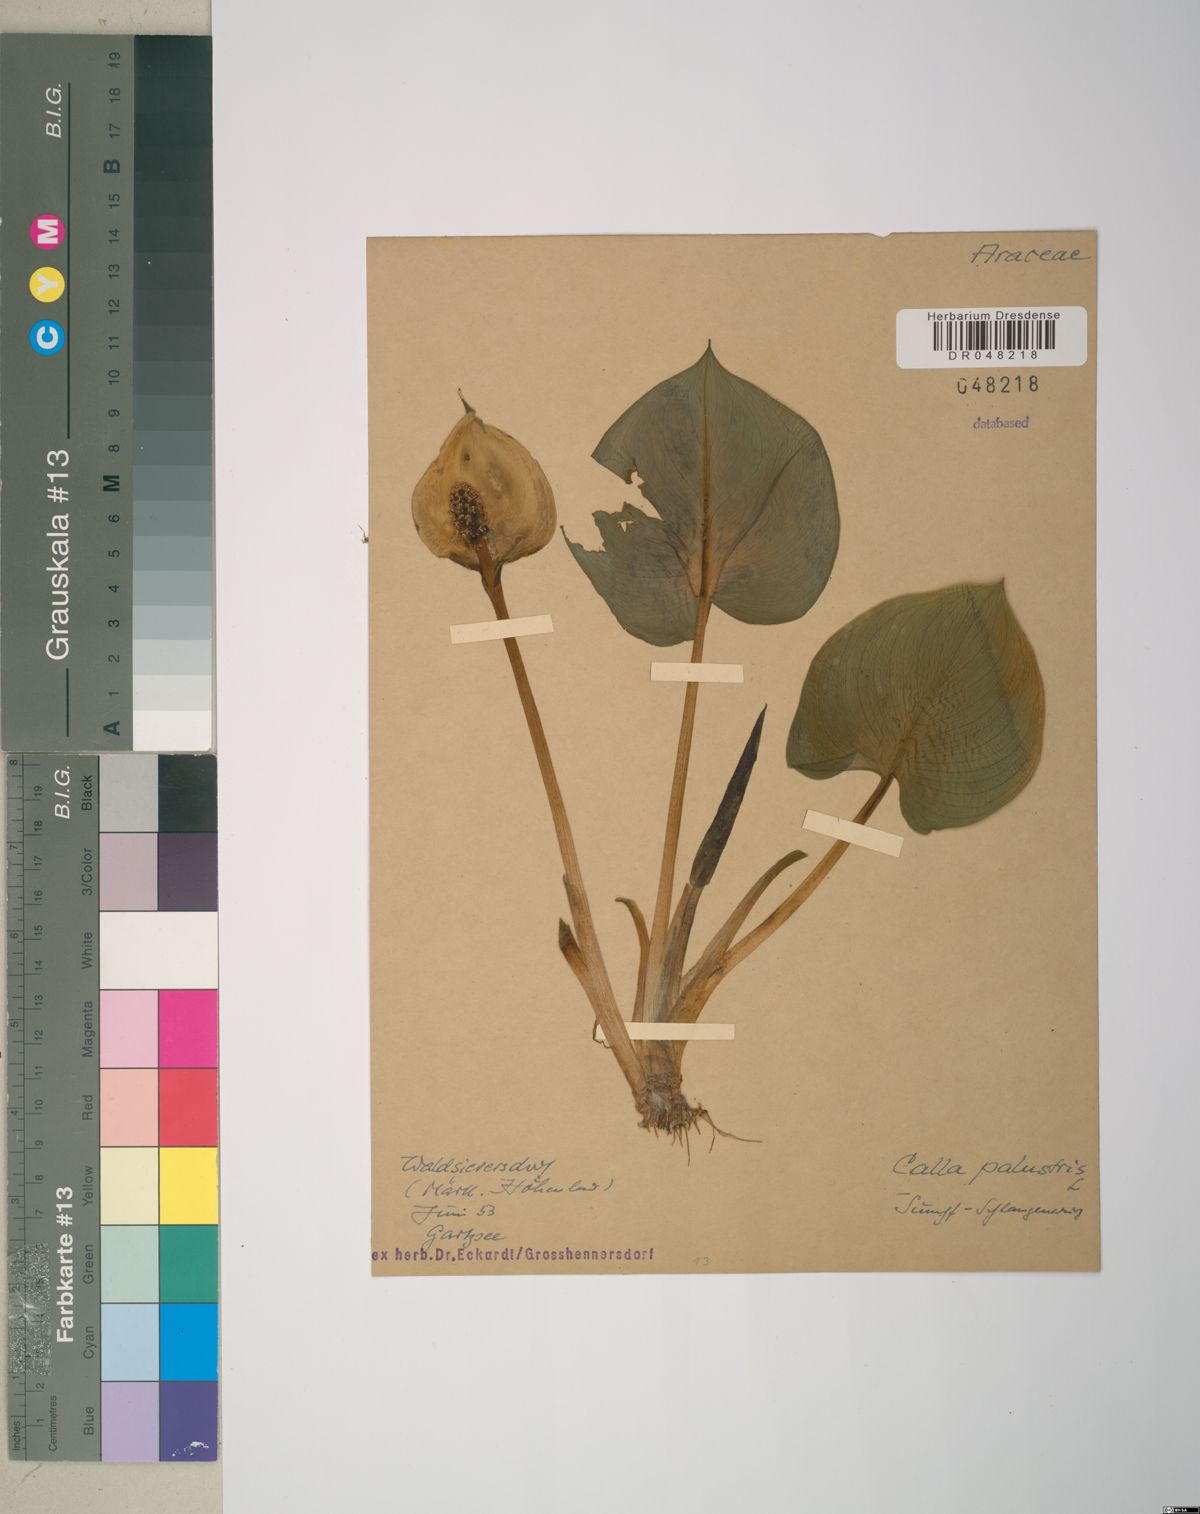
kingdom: Plantae
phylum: Tracheophyta
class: Liliopsida
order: Alismatales
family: Araceae
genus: Calla
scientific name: Calla palustris
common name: Bog arum
